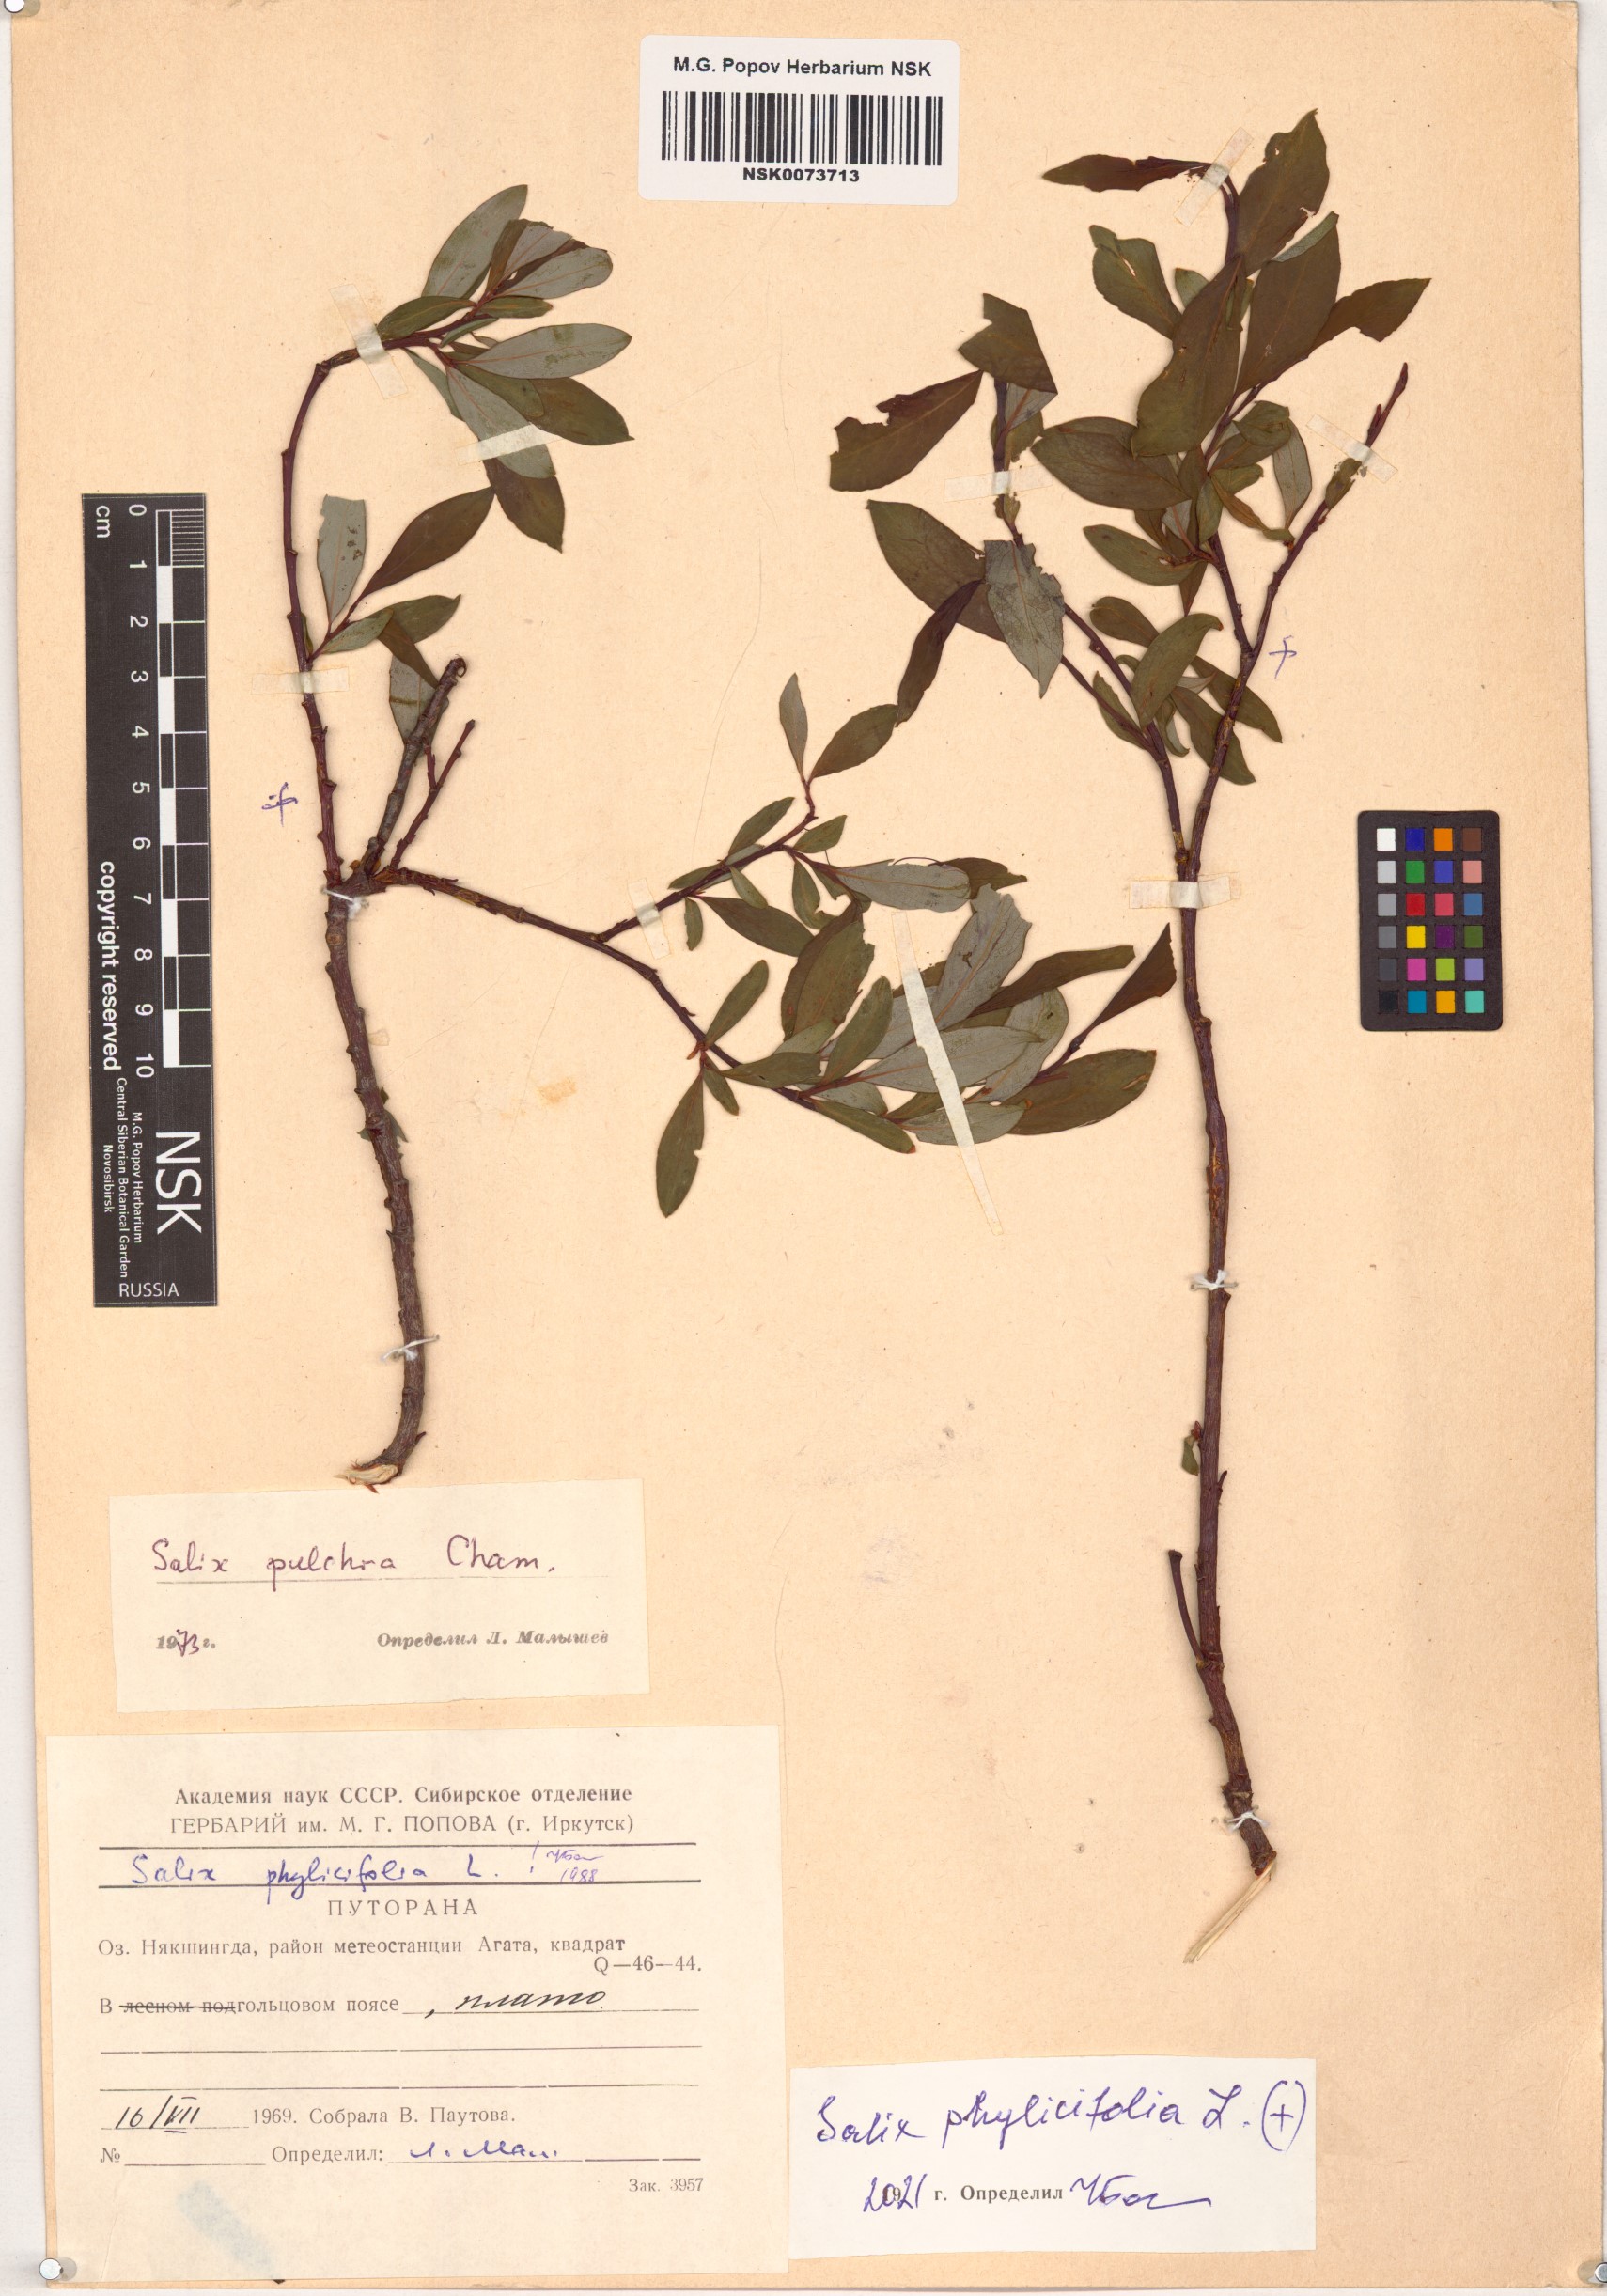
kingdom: Plantae
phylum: Tracheophyta
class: Magnoliopsida
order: Malpighiales
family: Salicaceae
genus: Salix
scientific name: Salix phylicifolia
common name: Tea-leaved willow
